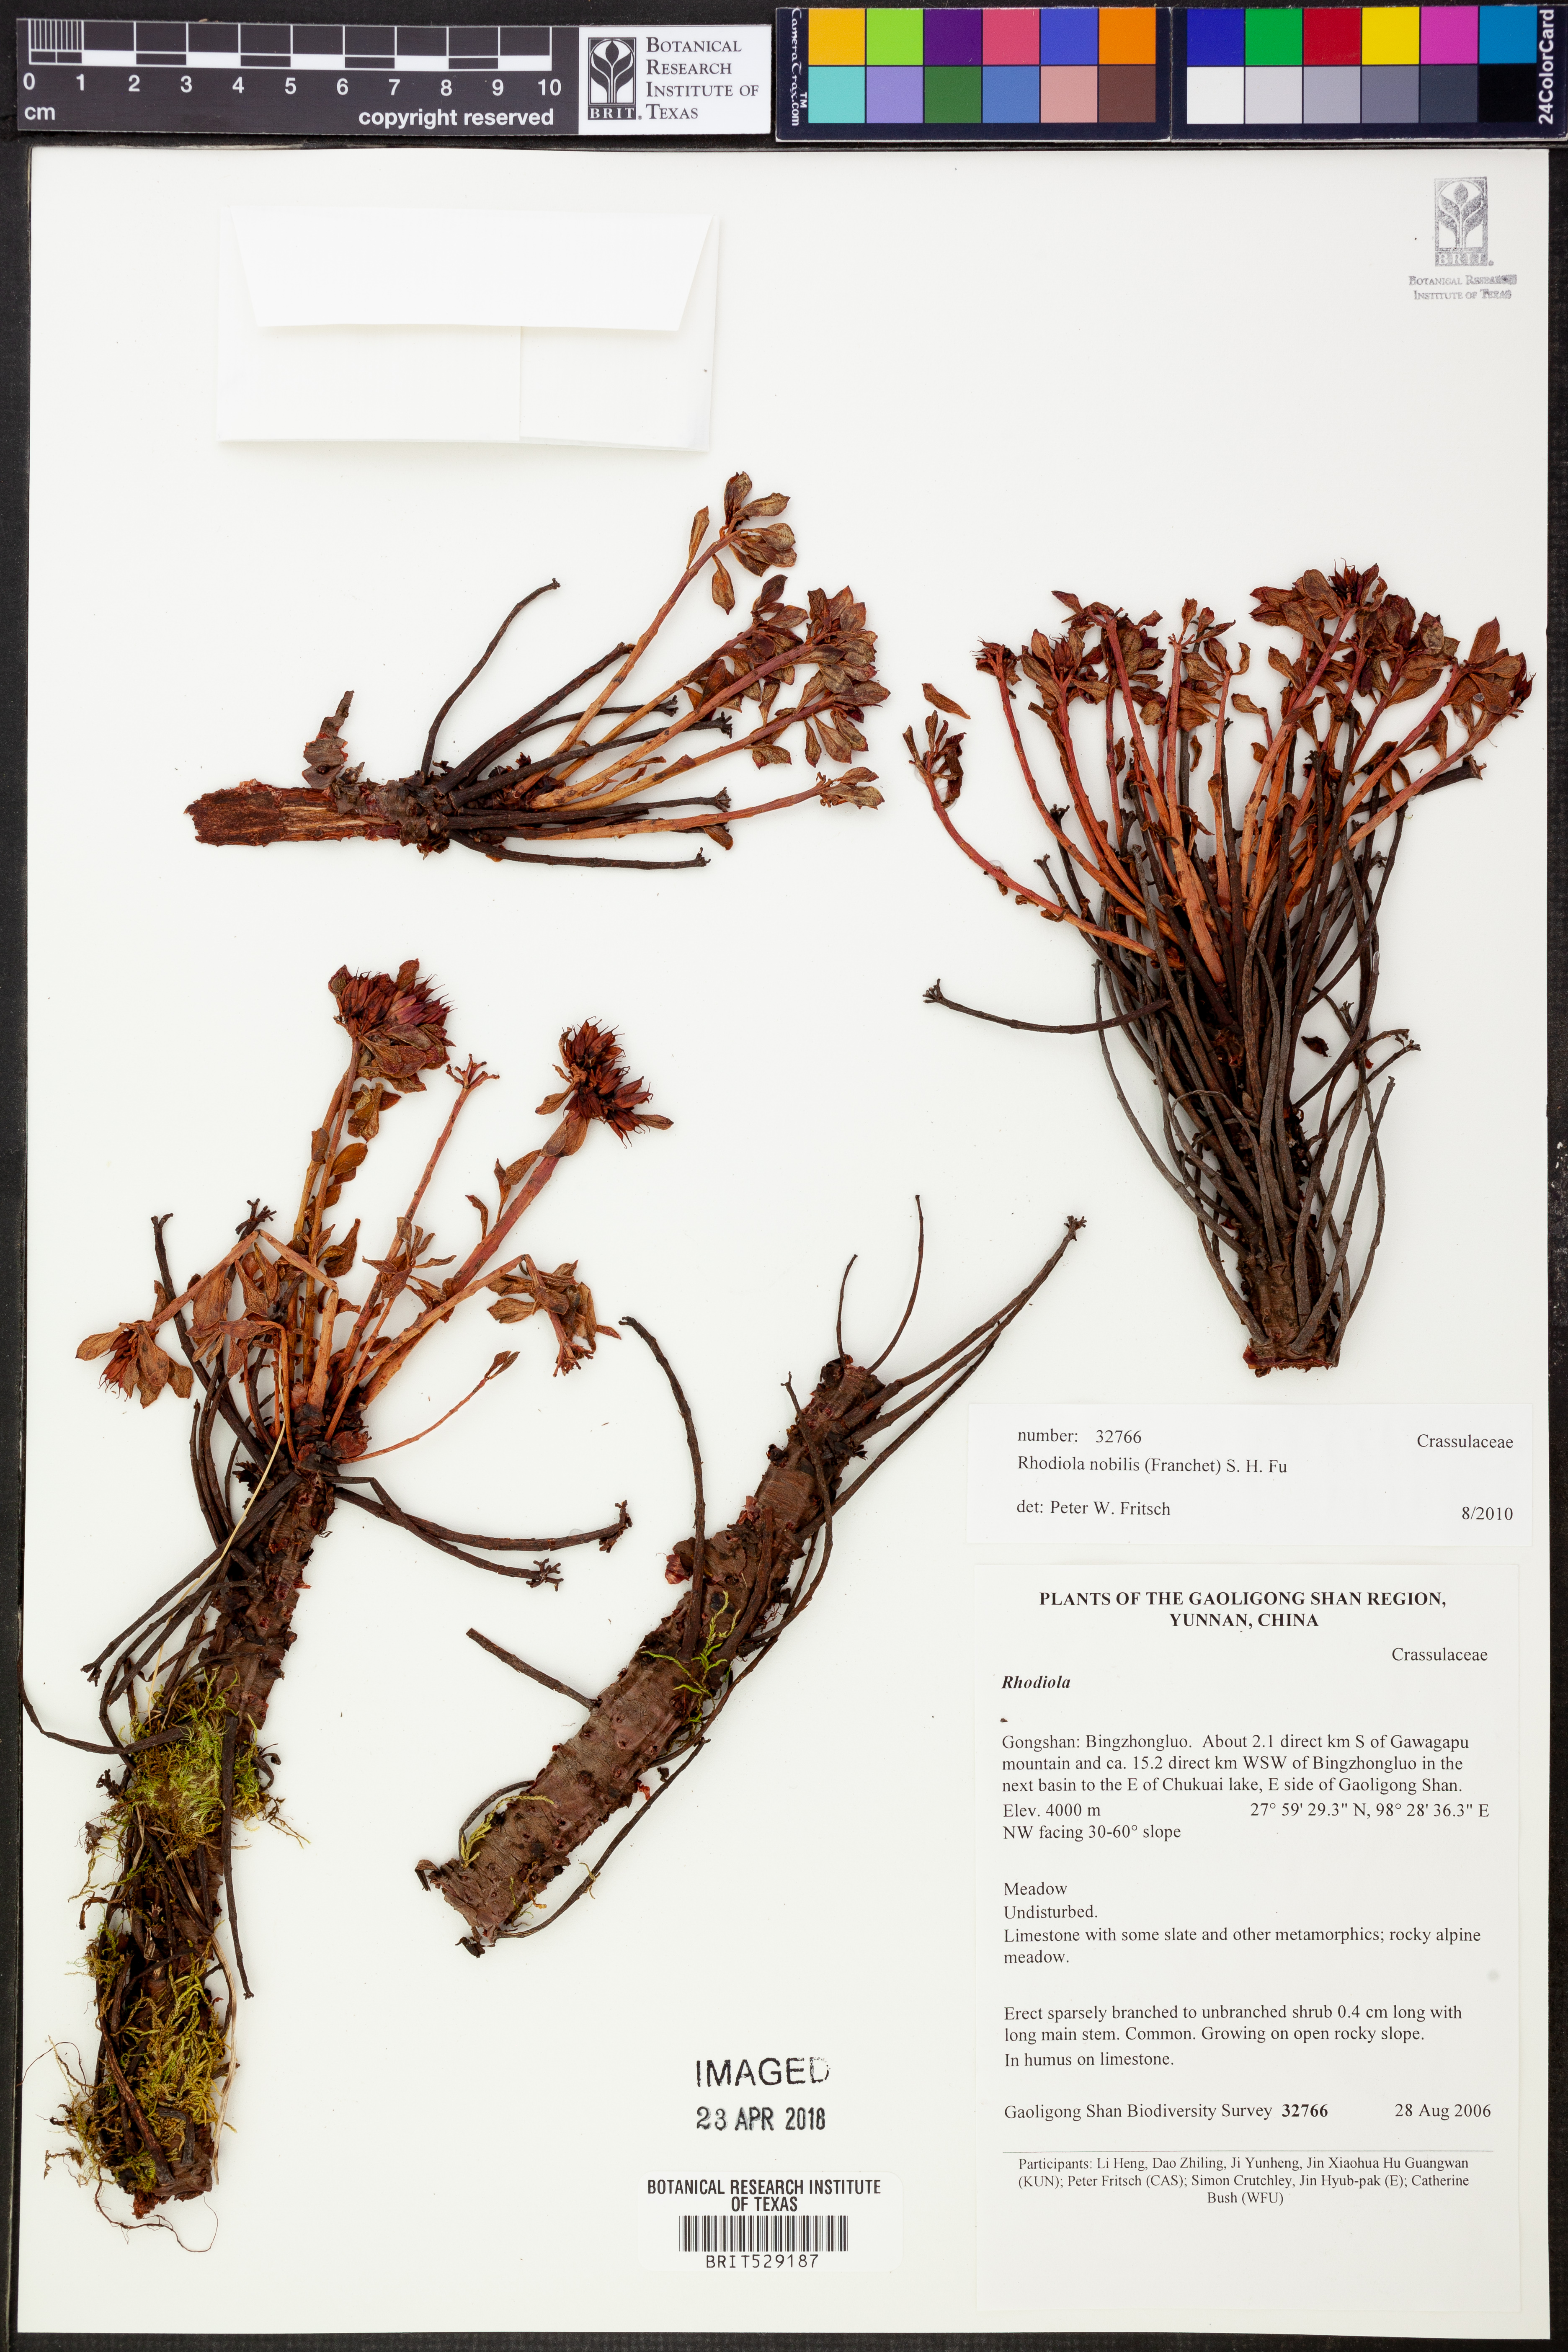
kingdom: Plantae
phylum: Tracheophyta
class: Magnoliopsida
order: Saxifragales
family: Crassulaceae
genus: Rhodiola
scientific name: Rhodiola nobilis
